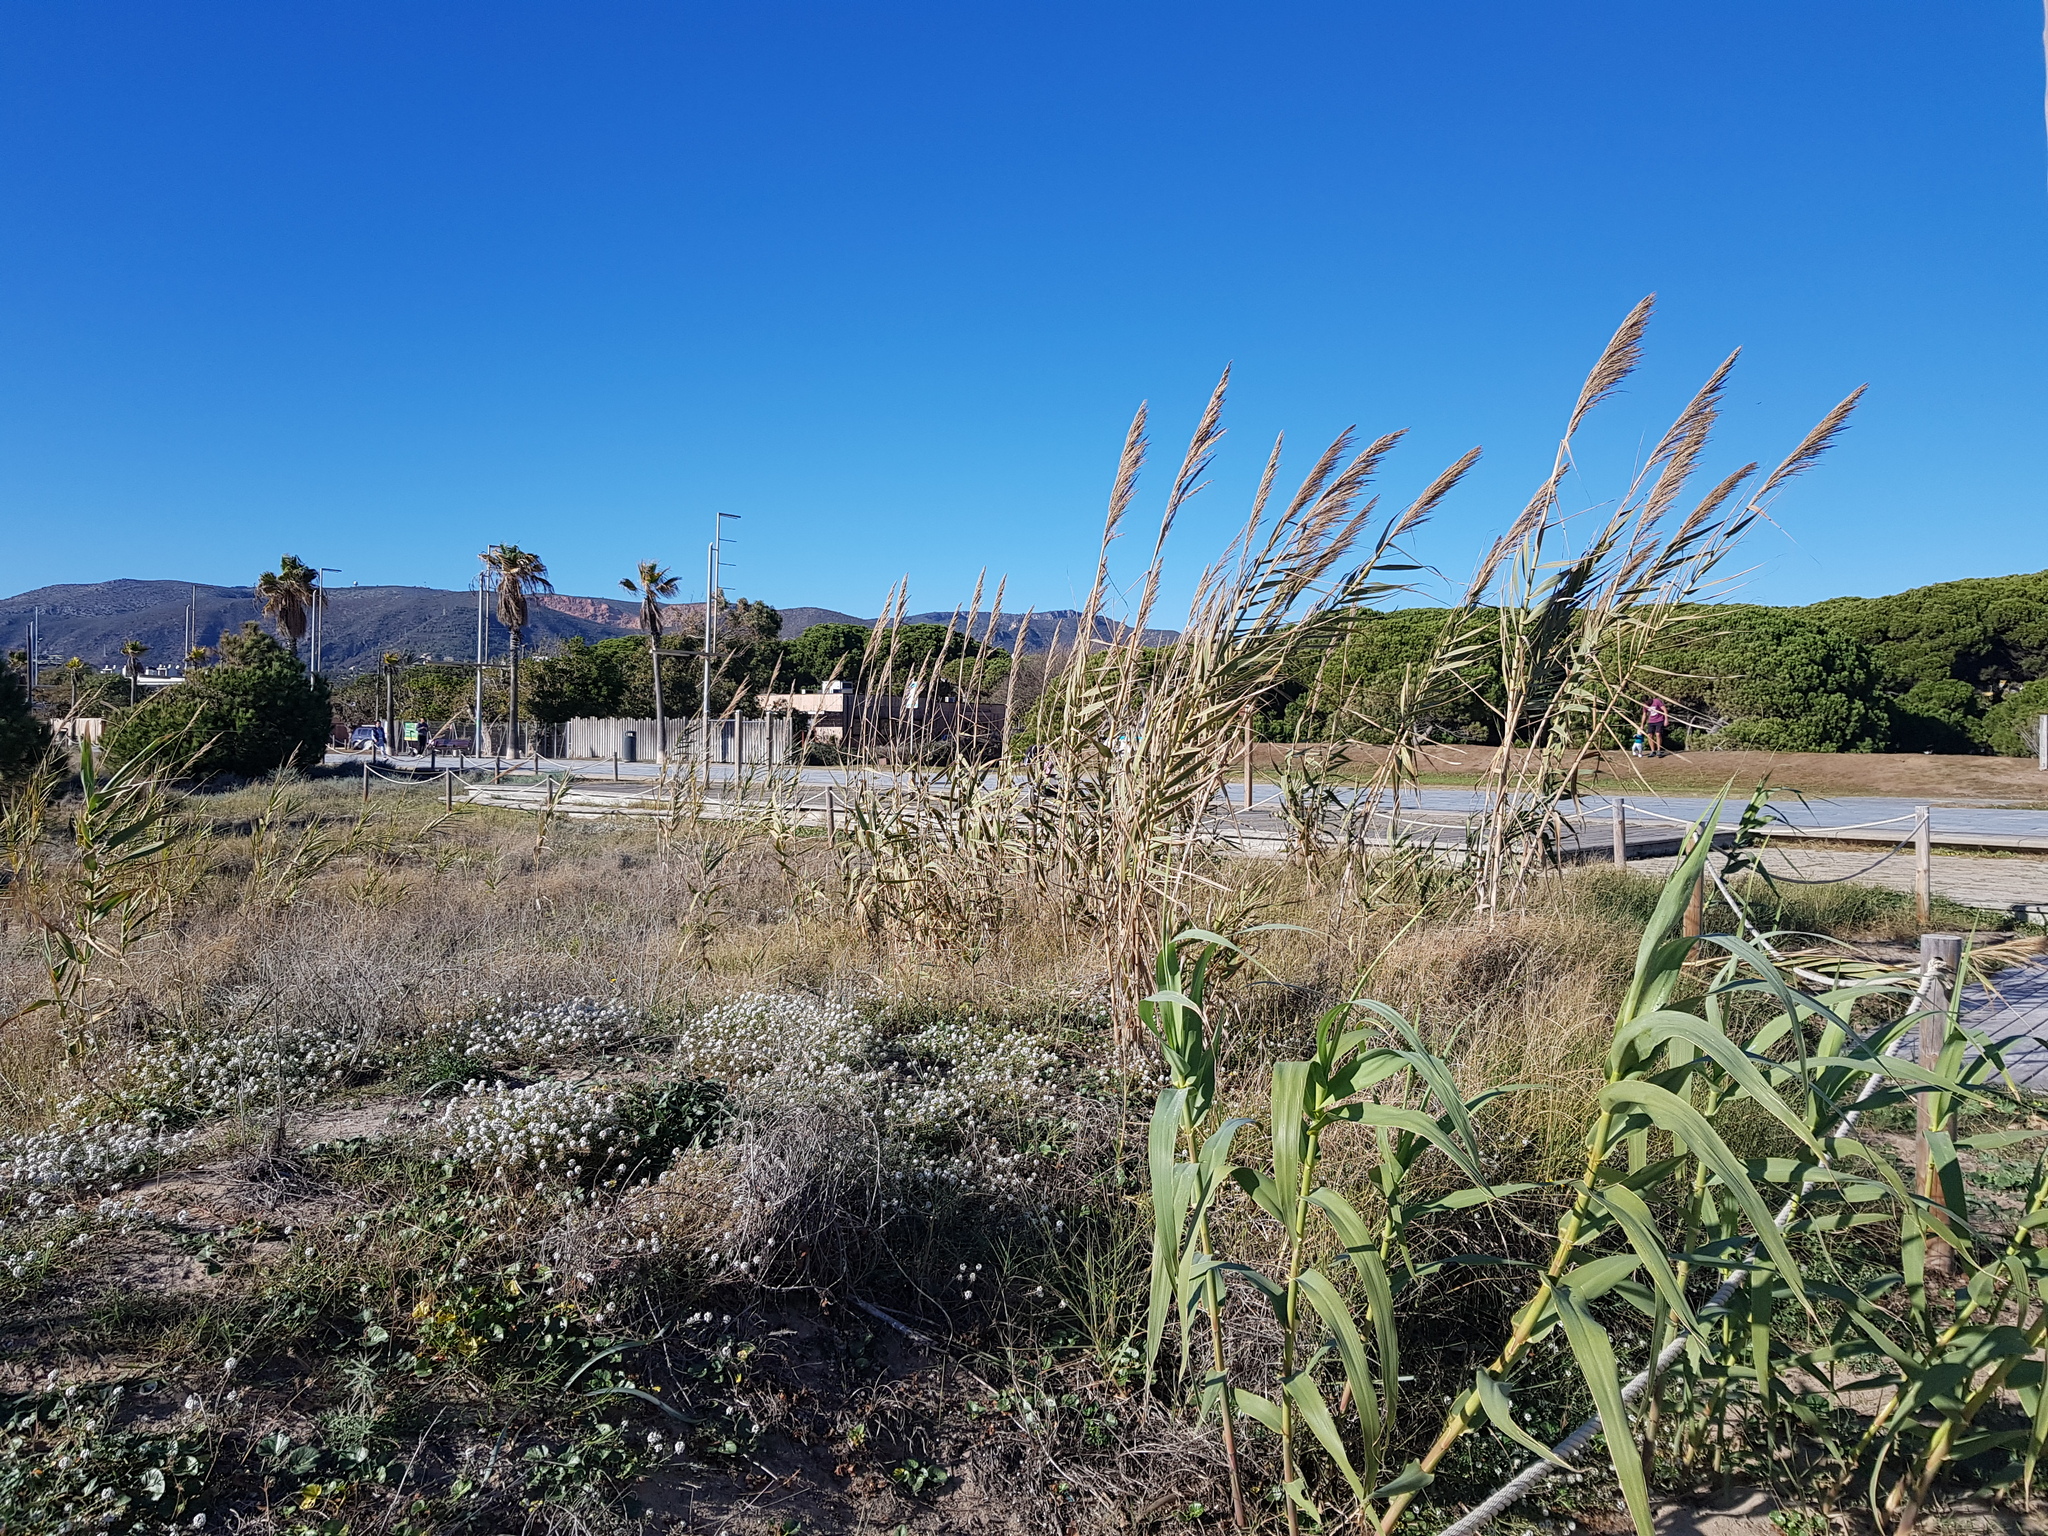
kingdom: Plantae
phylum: Tracheophyta
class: Liliopsida
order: Poales
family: Poaceae
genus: Arundo
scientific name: Arundo donax
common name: Giant reed
